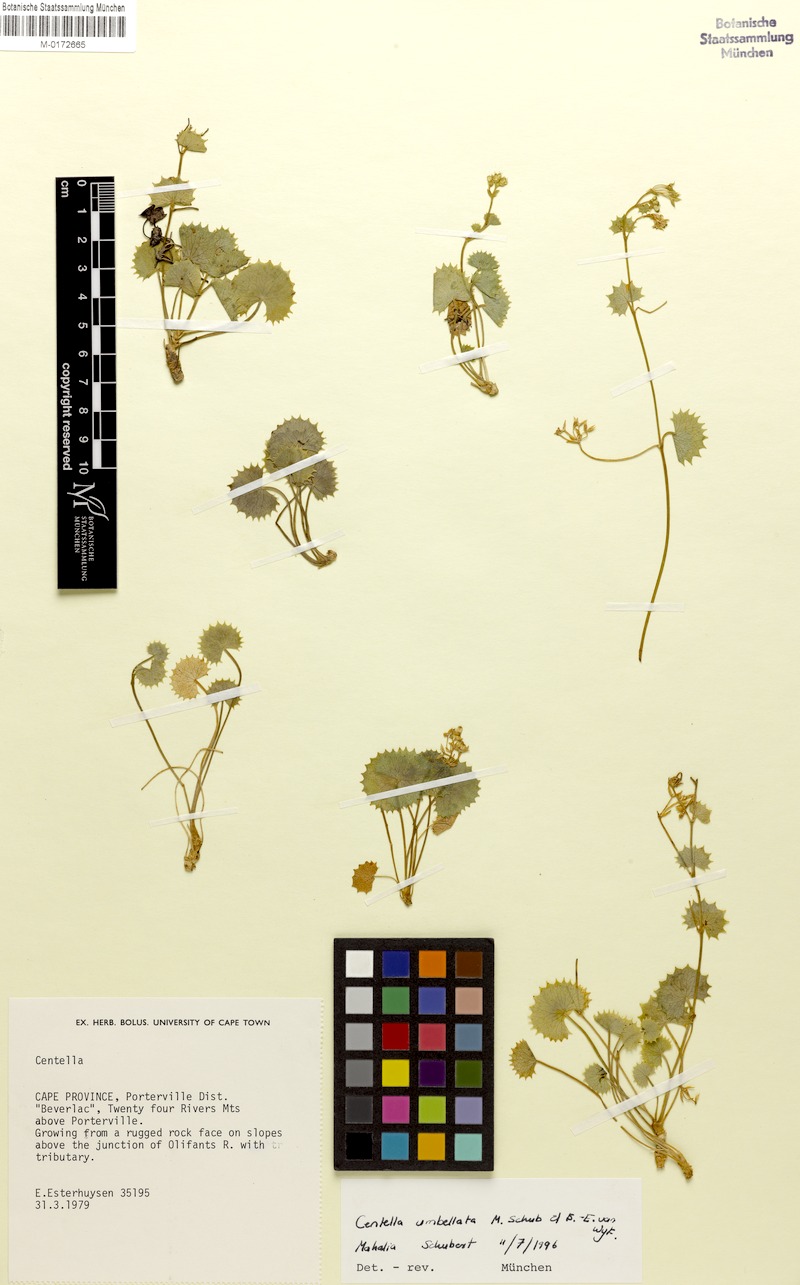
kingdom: Plantae
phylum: Tracheophyta
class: Magnoliopsida
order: Apiales
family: Apiaceae
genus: Centella
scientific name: Centella umbellata
